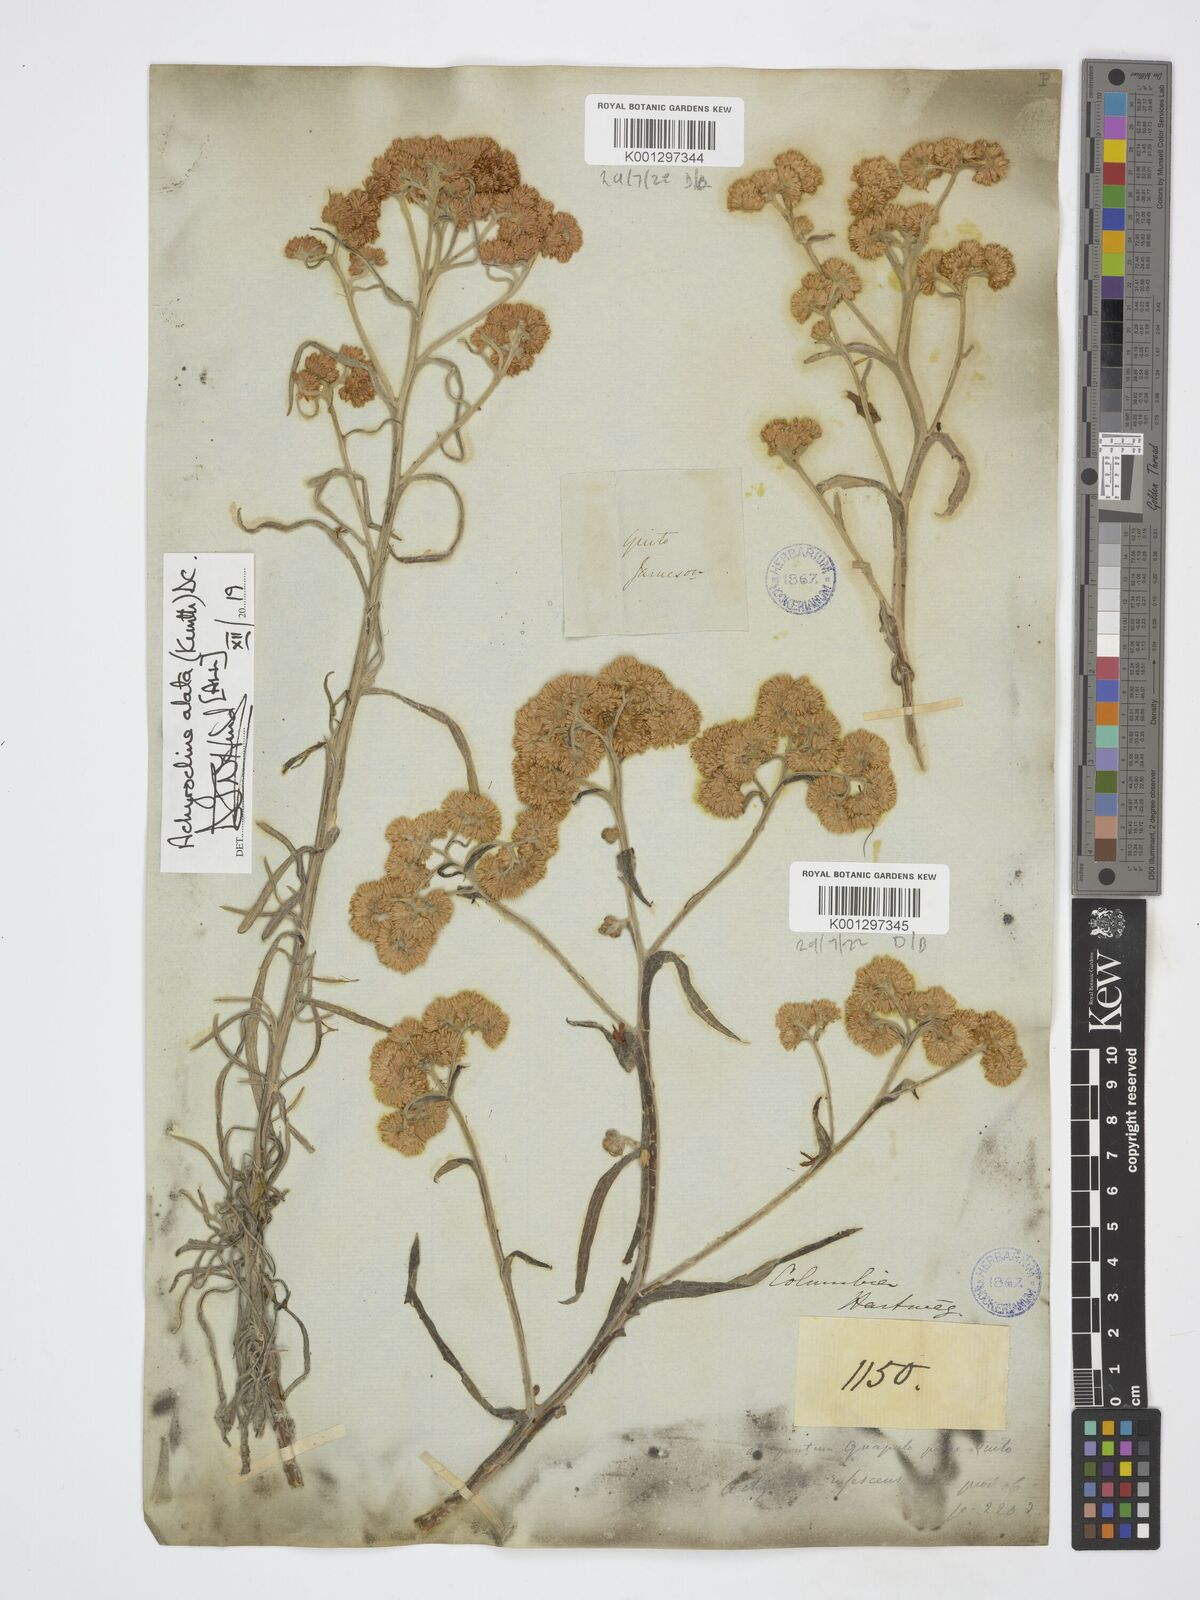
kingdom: Plantae
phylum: Tracheophyta
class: Magnoliopsida
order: Asterales
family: Asteraceae
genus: Achyrocline
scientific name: Achyrocline alata
